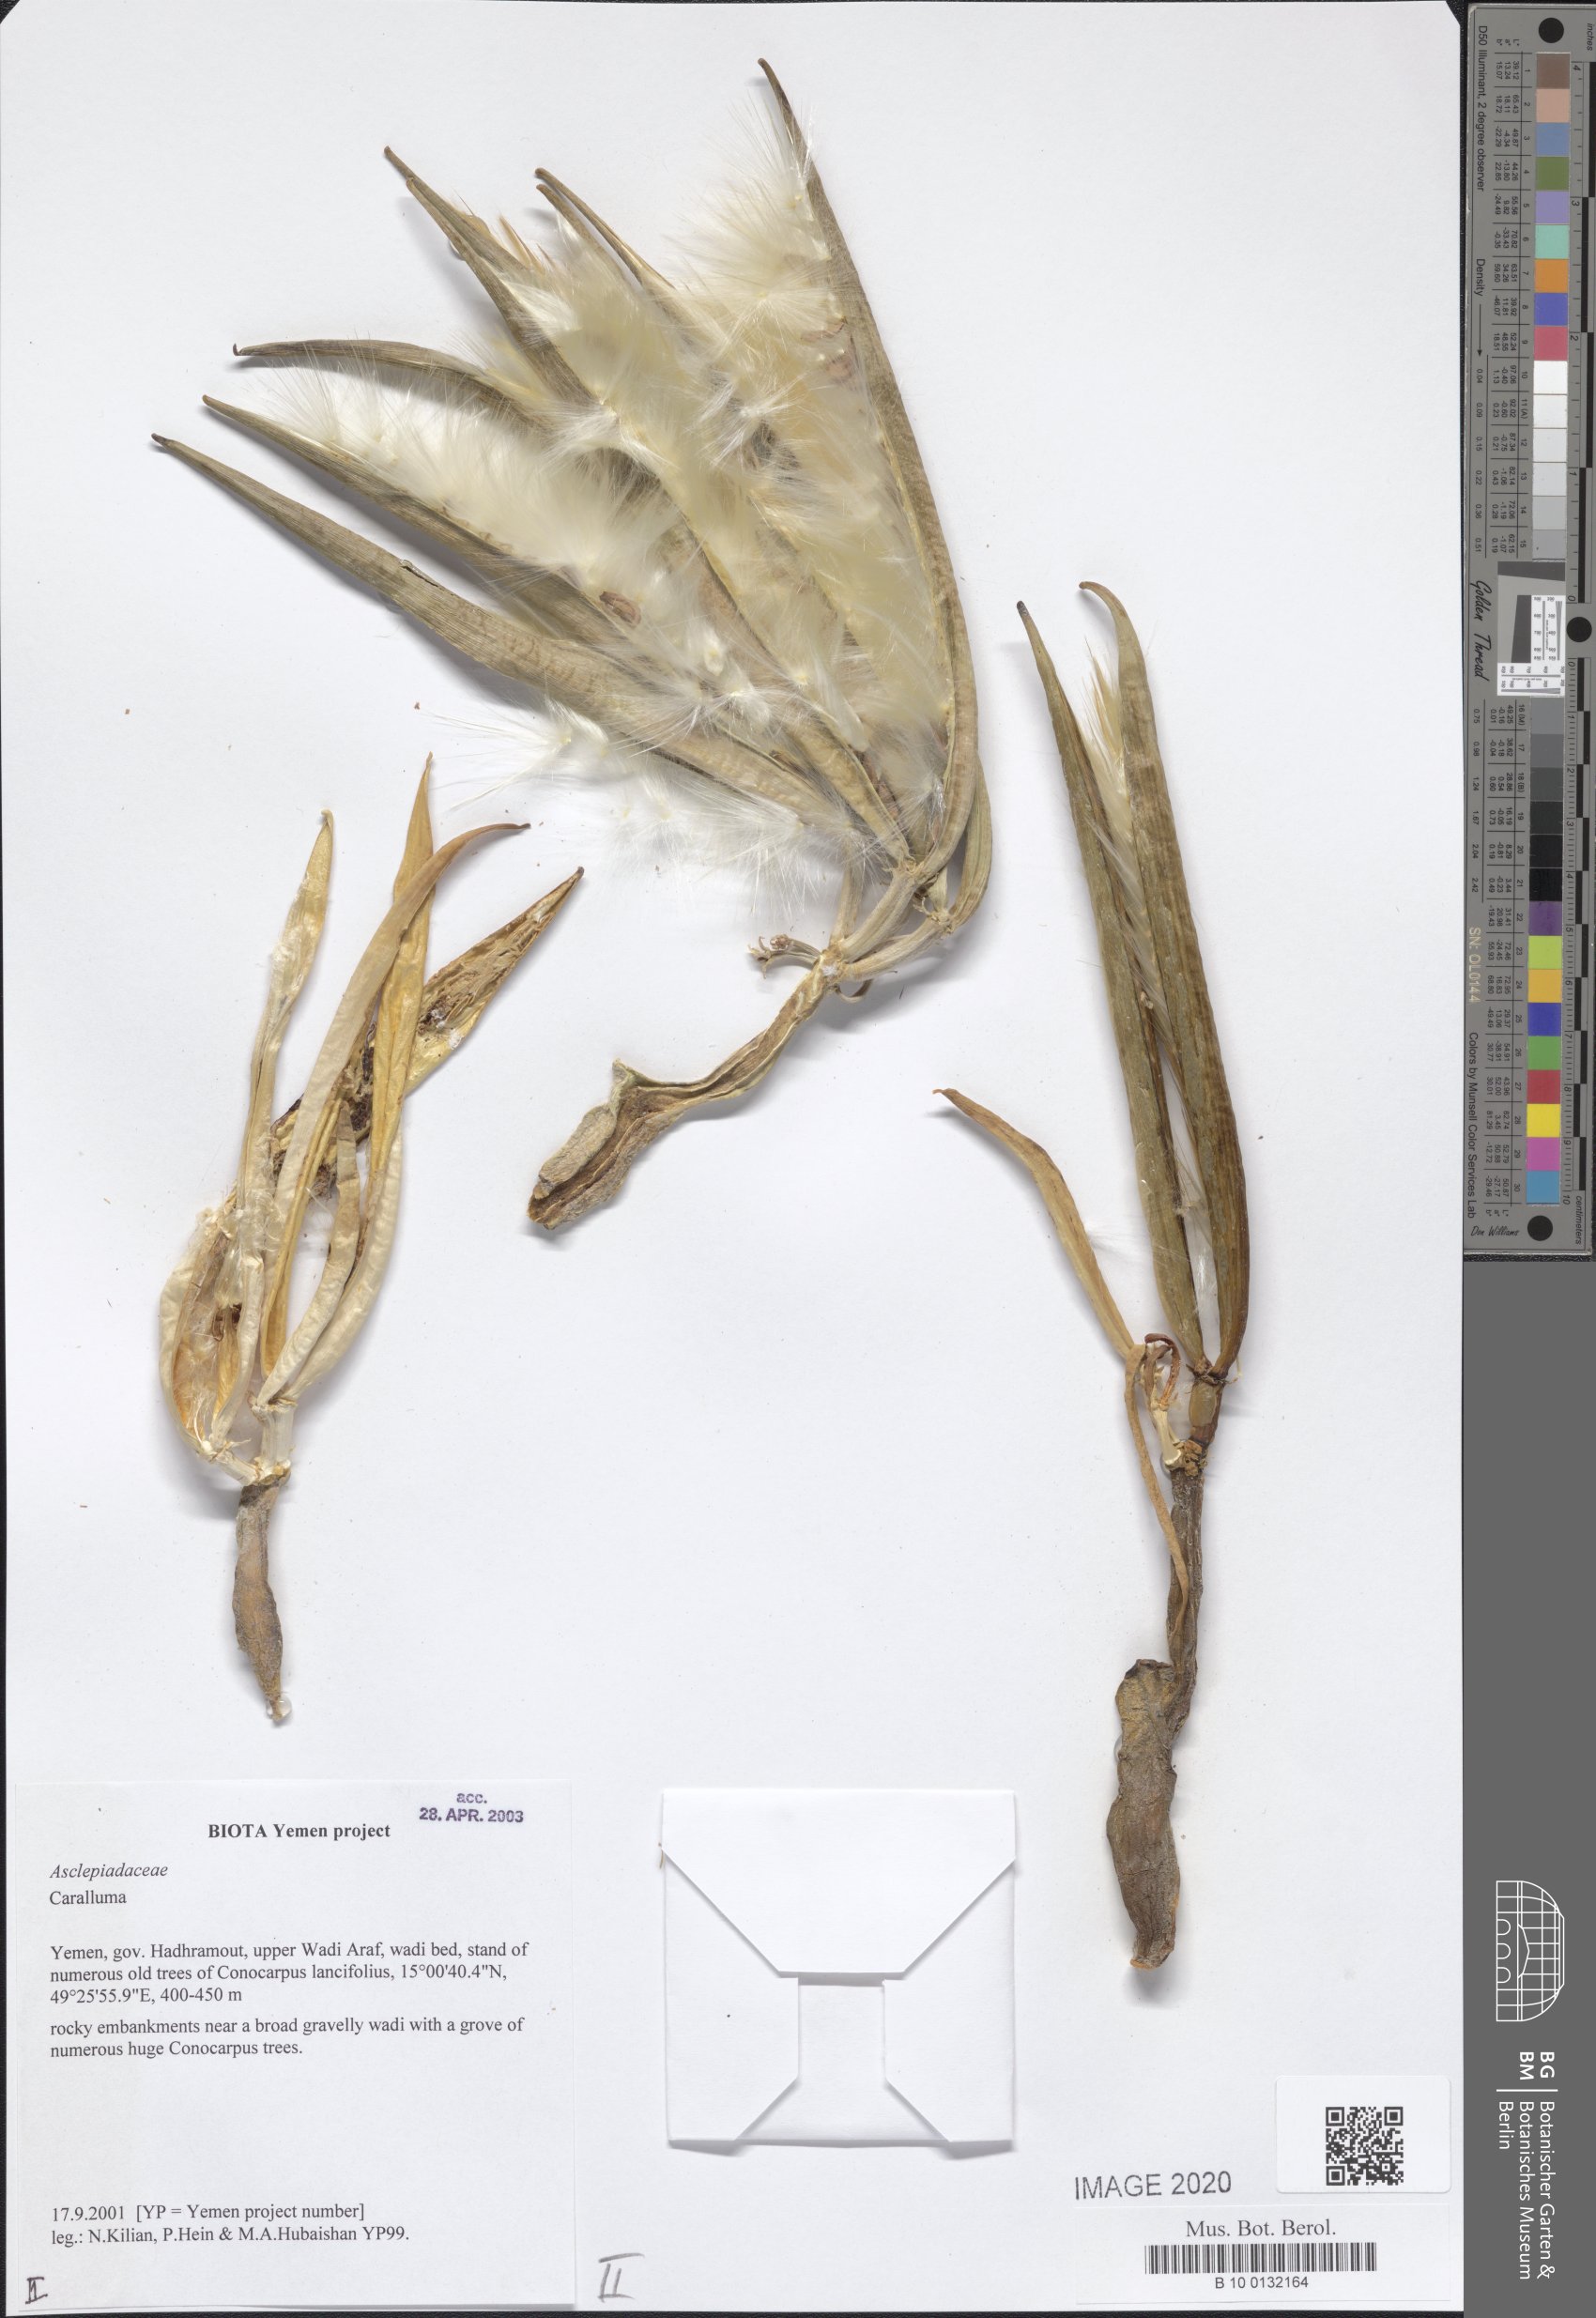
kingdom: Plantae
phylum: Tracheophyta
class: Magnoliopsida
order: Gentianales
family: Apocynaceae
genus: Ceropegia
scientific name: Ceropegia adenensis
